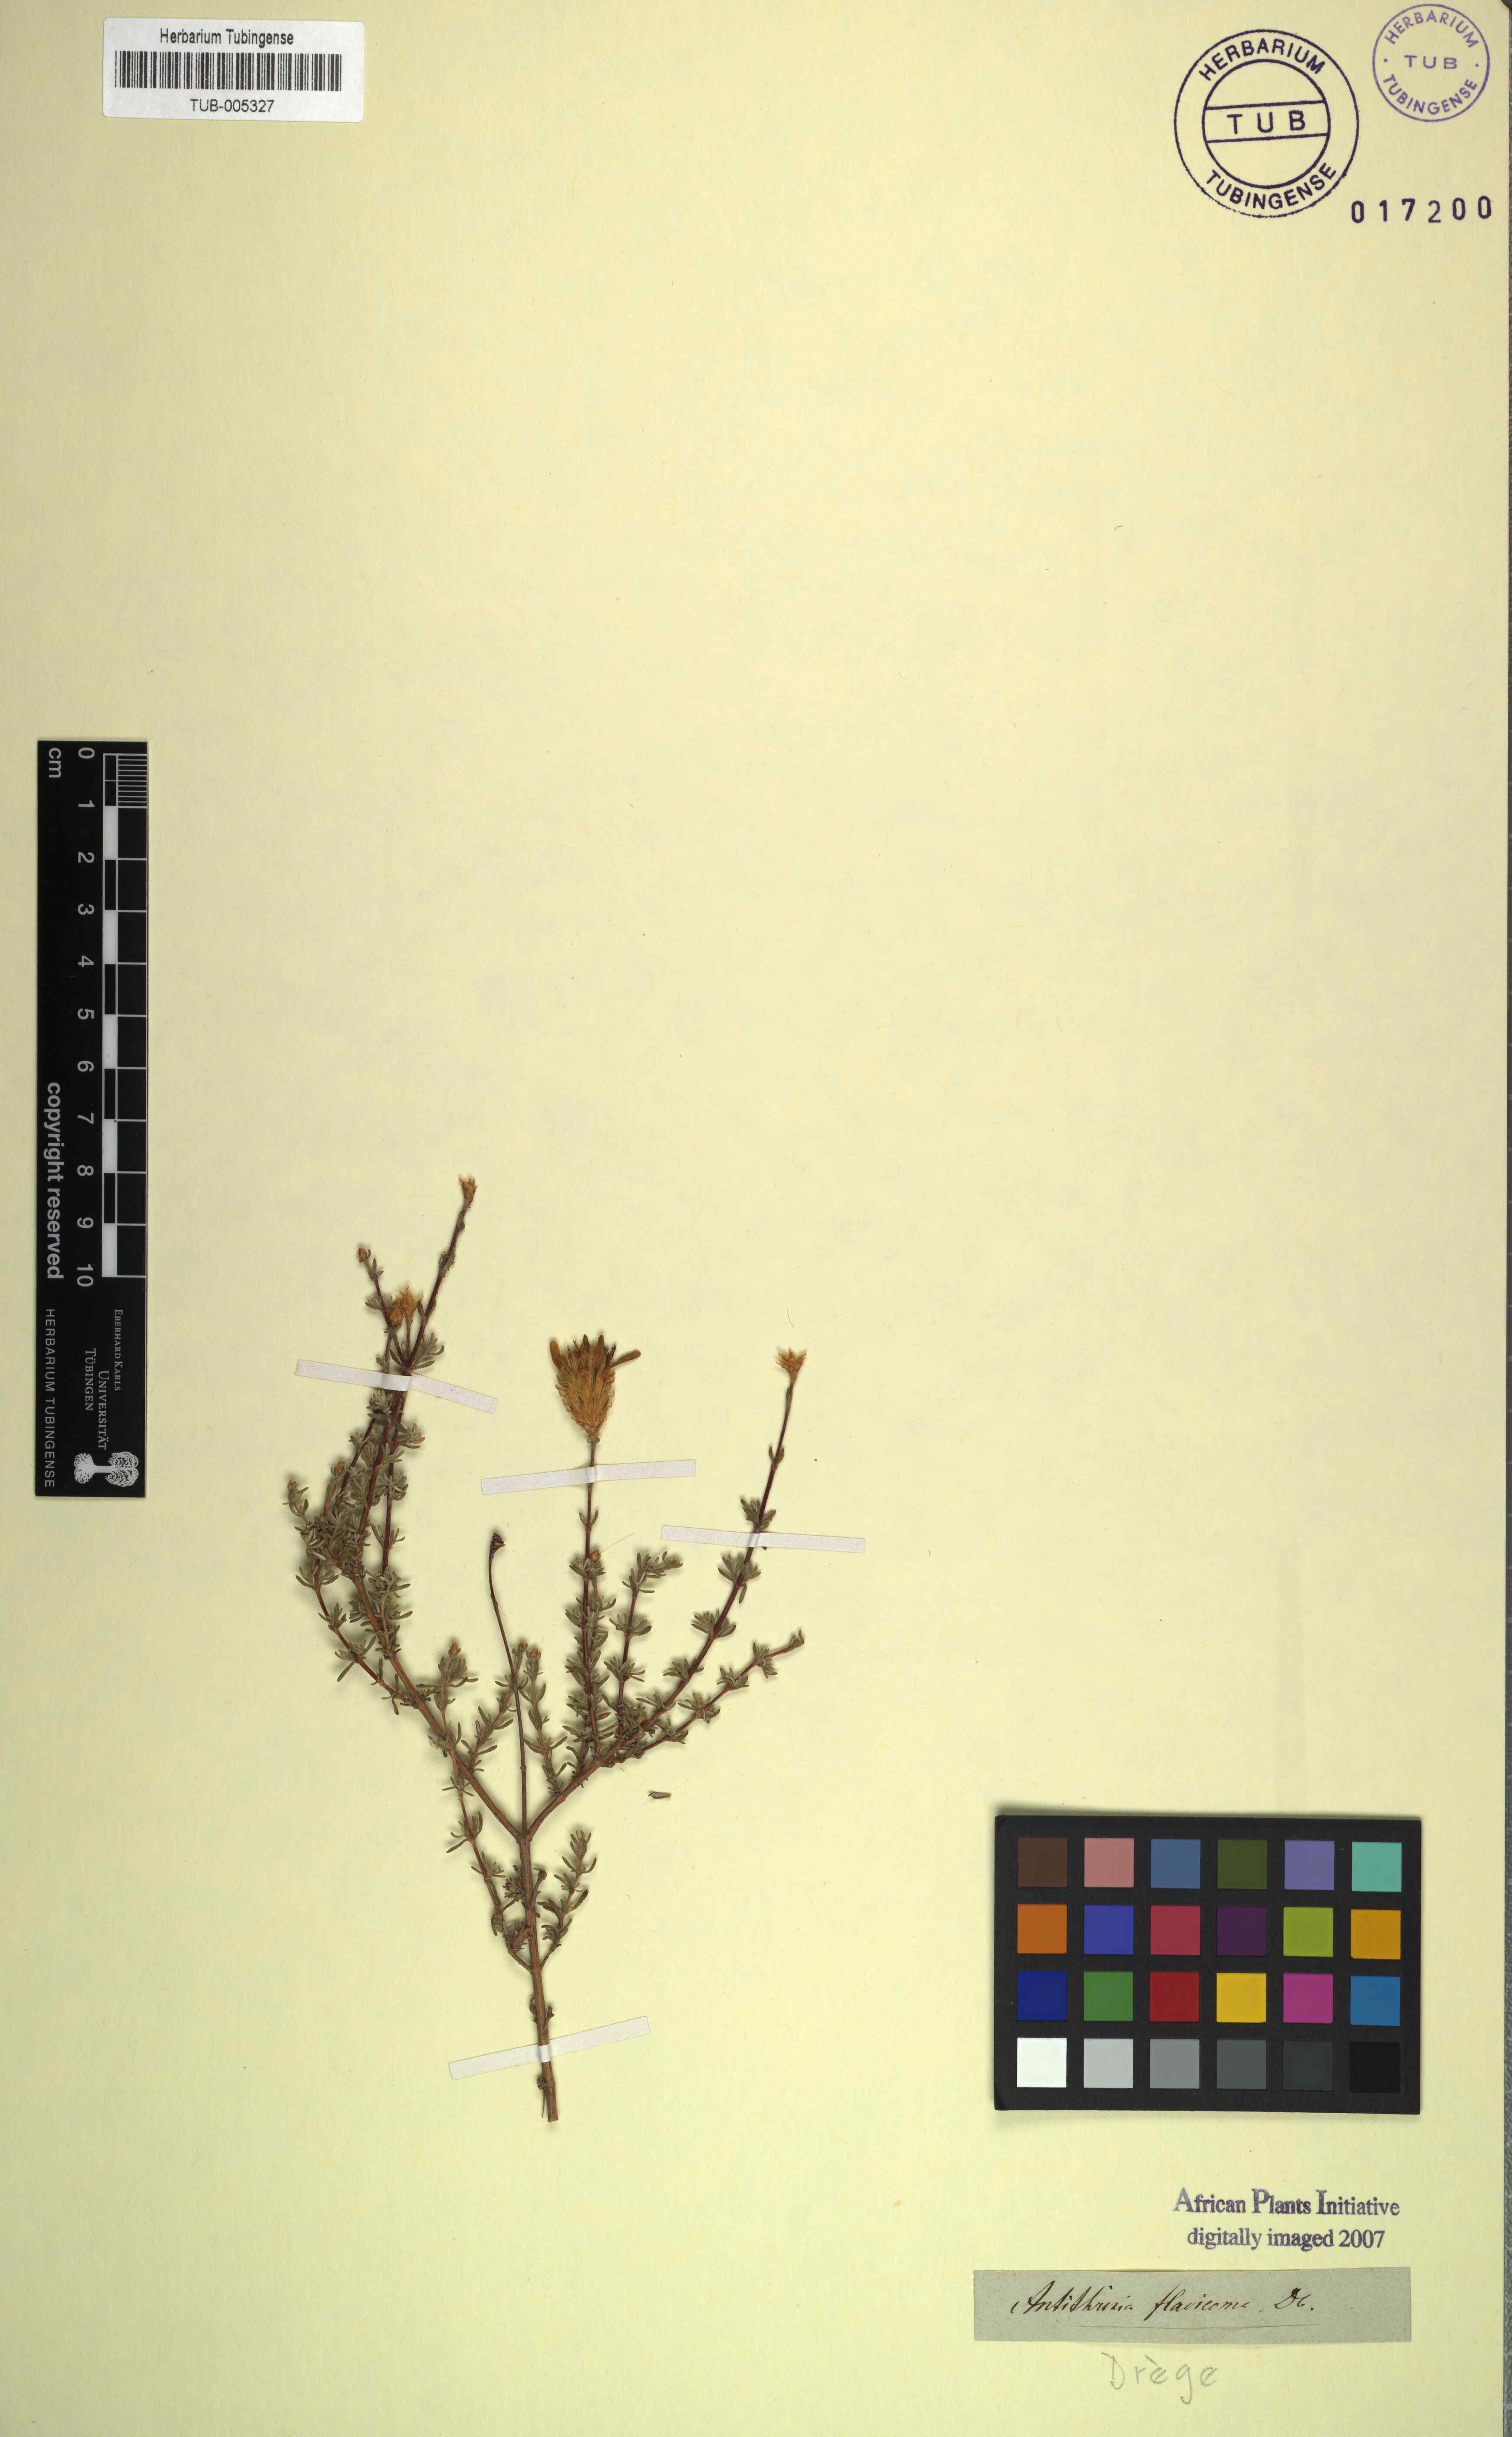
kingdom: Plantae
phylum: Tracheophyta
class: Magnoliopsida
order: Asterales
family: Asteraceae
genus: Oedera
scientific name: Oedera flavicoma
